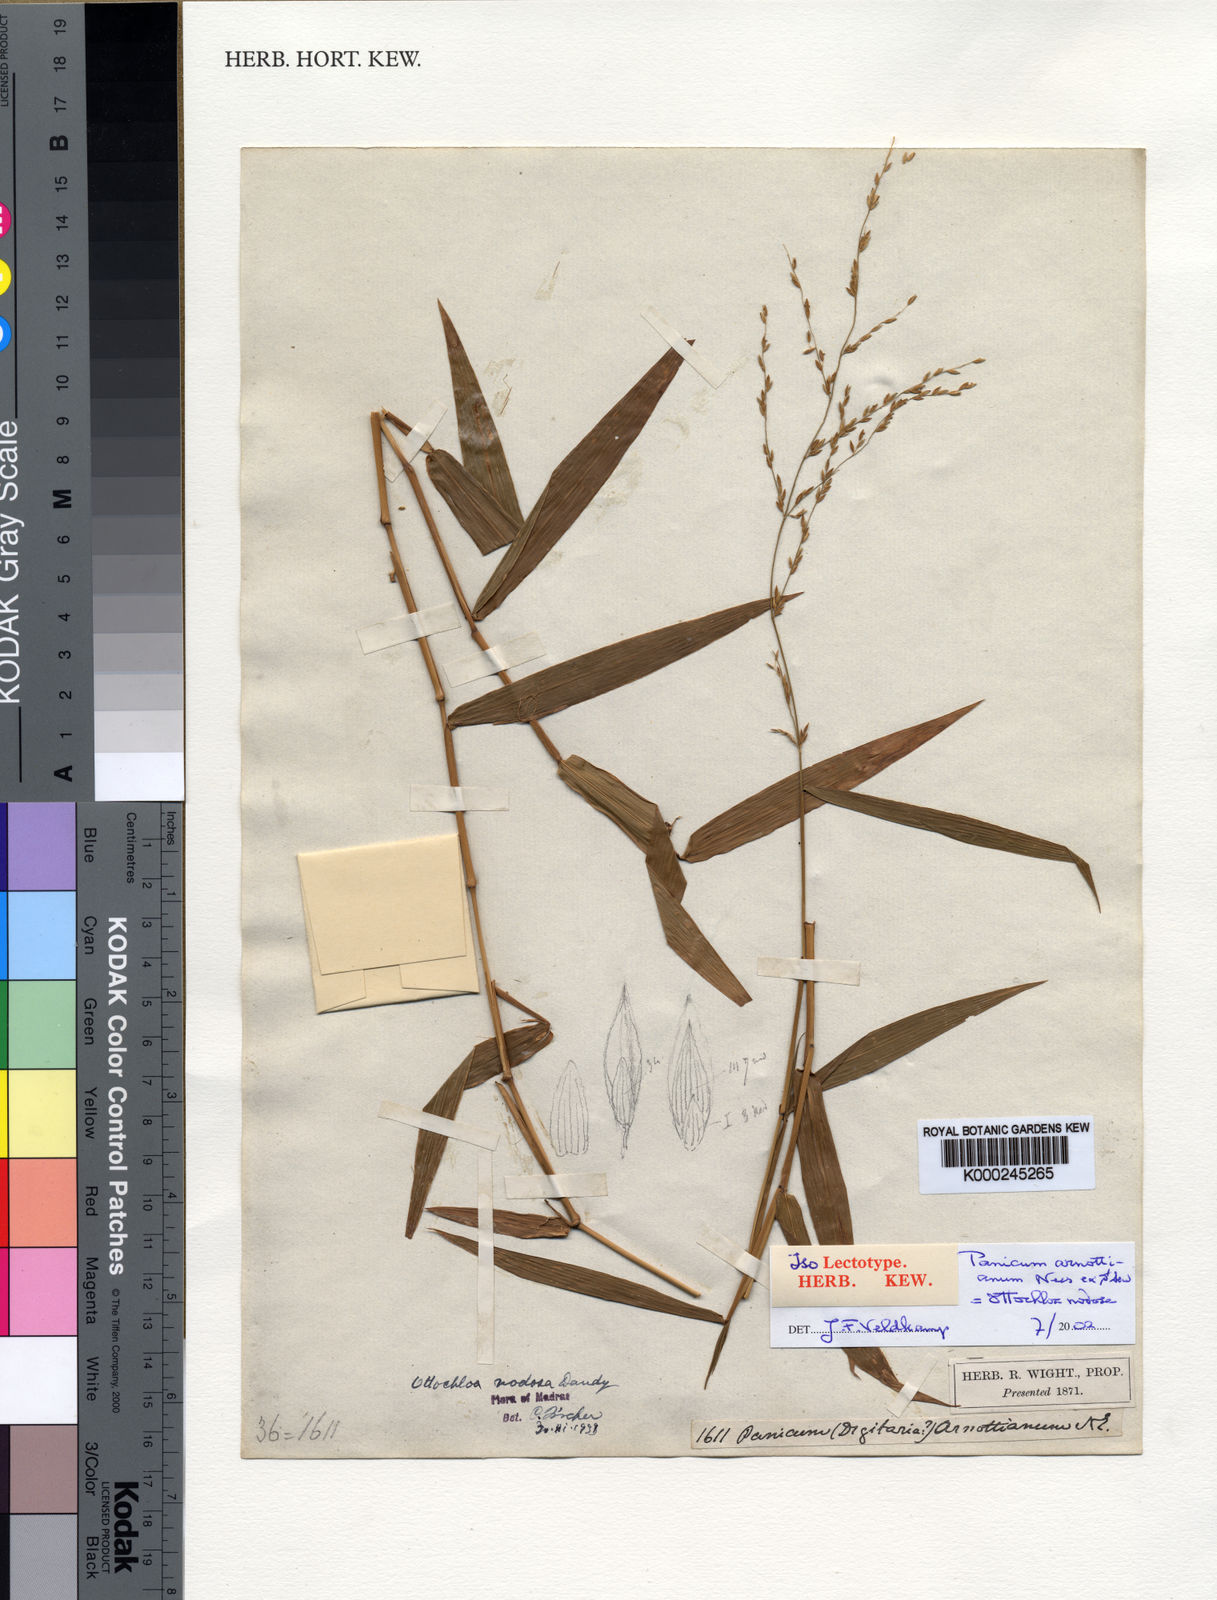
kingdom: Plantae
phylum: Tracheophyta
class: Liliopsida
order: Poales
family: Poaceae
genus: Ottochloa
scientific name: Ottochloa nodosa
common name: Slender-panic grass
